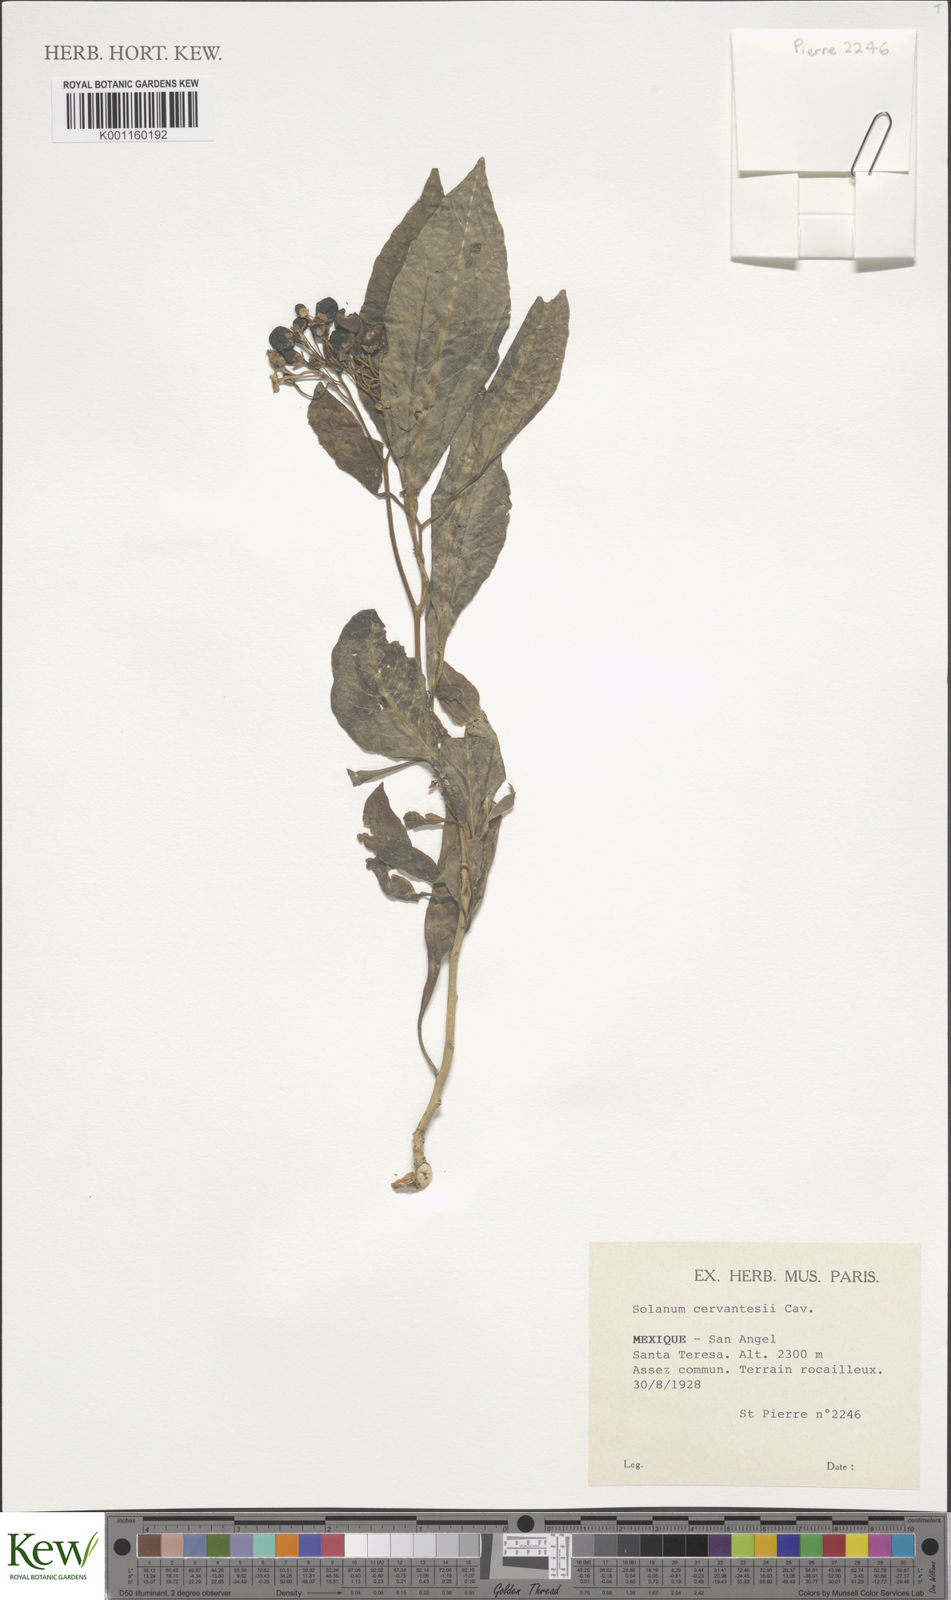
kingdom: Plantae
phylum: Tracheophyta
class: Magnoliopsida
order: Solanales
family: Solanaceae
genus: Solanum
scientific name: Solanum pubigerum
